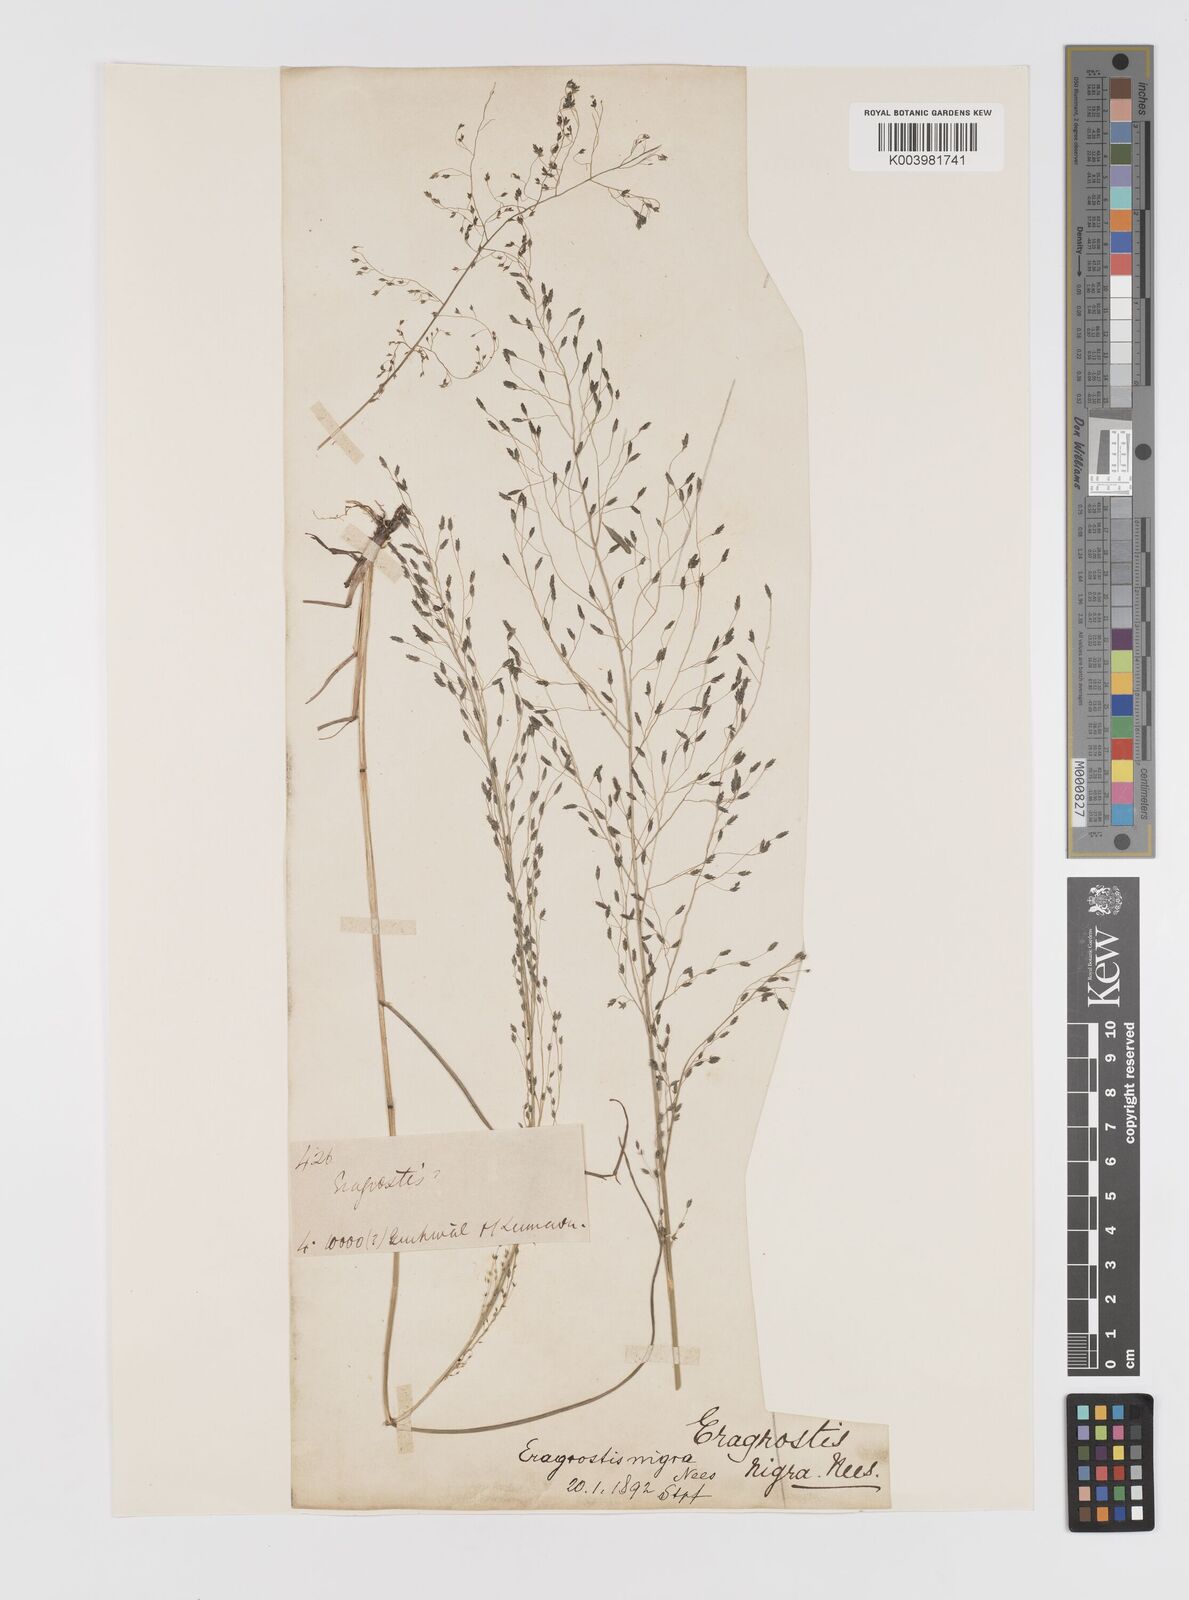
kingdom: Plantae
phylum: Tracheophyta
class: Liliopsida
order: Poales
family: Poaceae
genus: Eragrostis
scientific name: Eragrostis nigra
